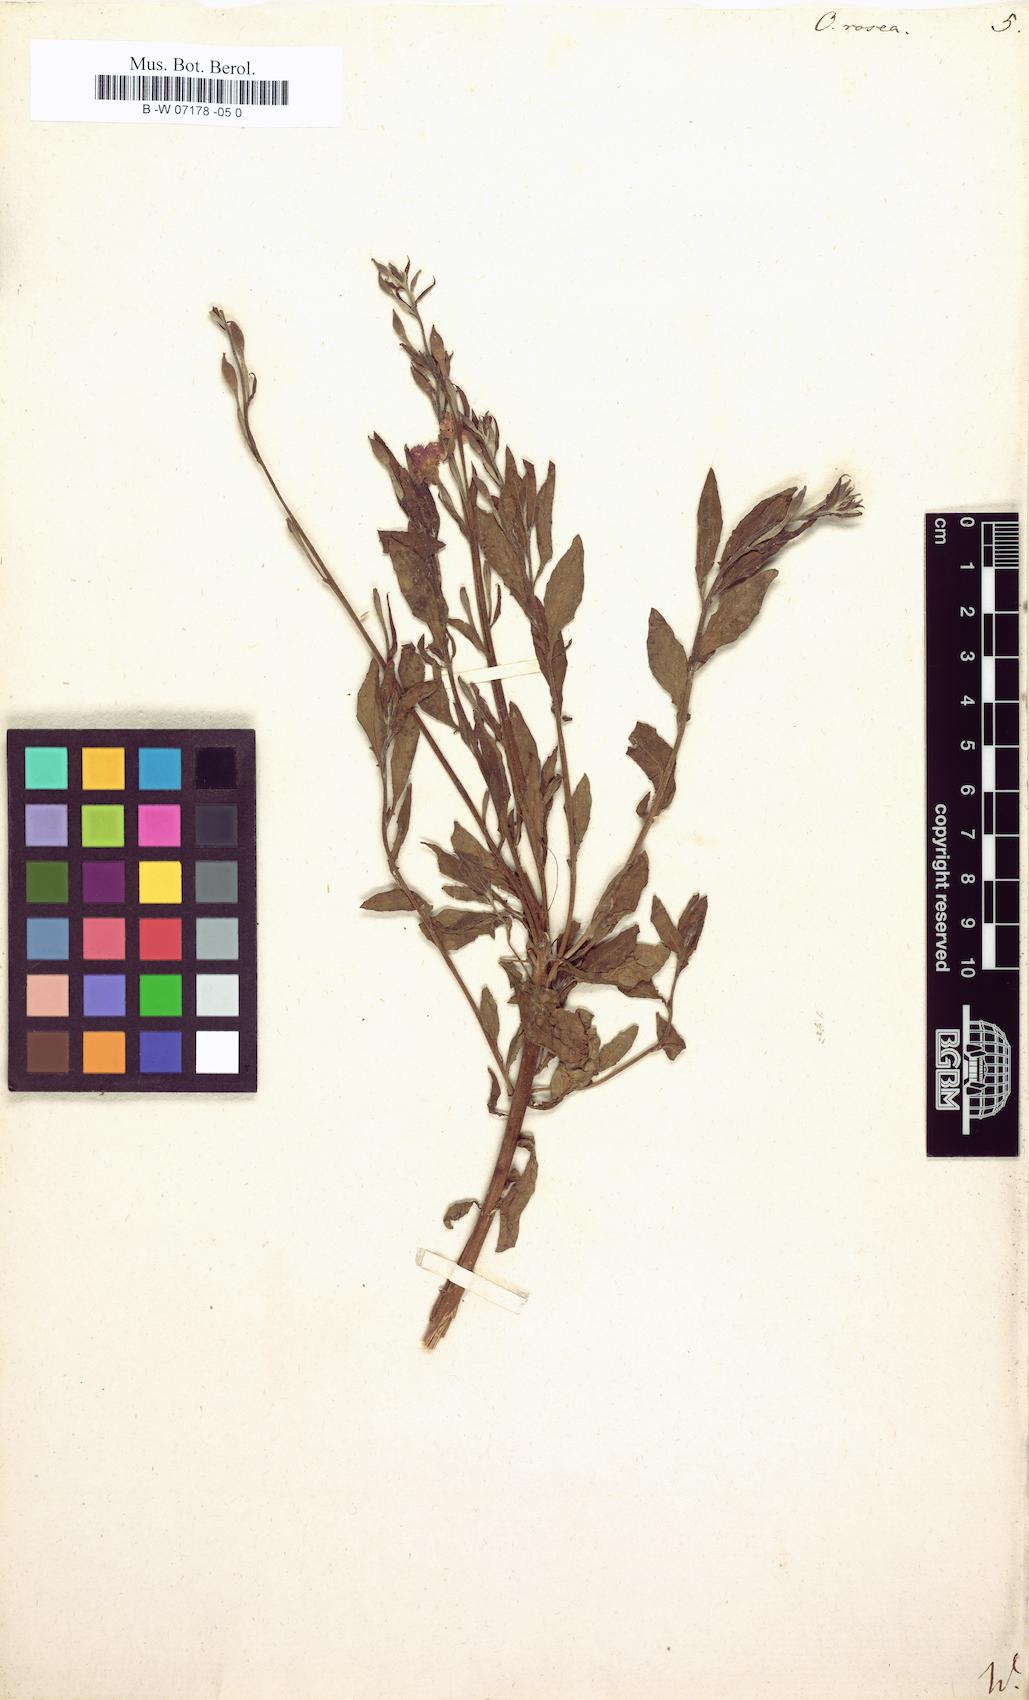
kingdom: Plantae
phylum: Tracheophyta
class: Magnoliopsida
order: Myrtales
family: Onagraceae
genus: Oenothera
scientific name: Oenothera rosea
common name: Rosy evening-primrose
